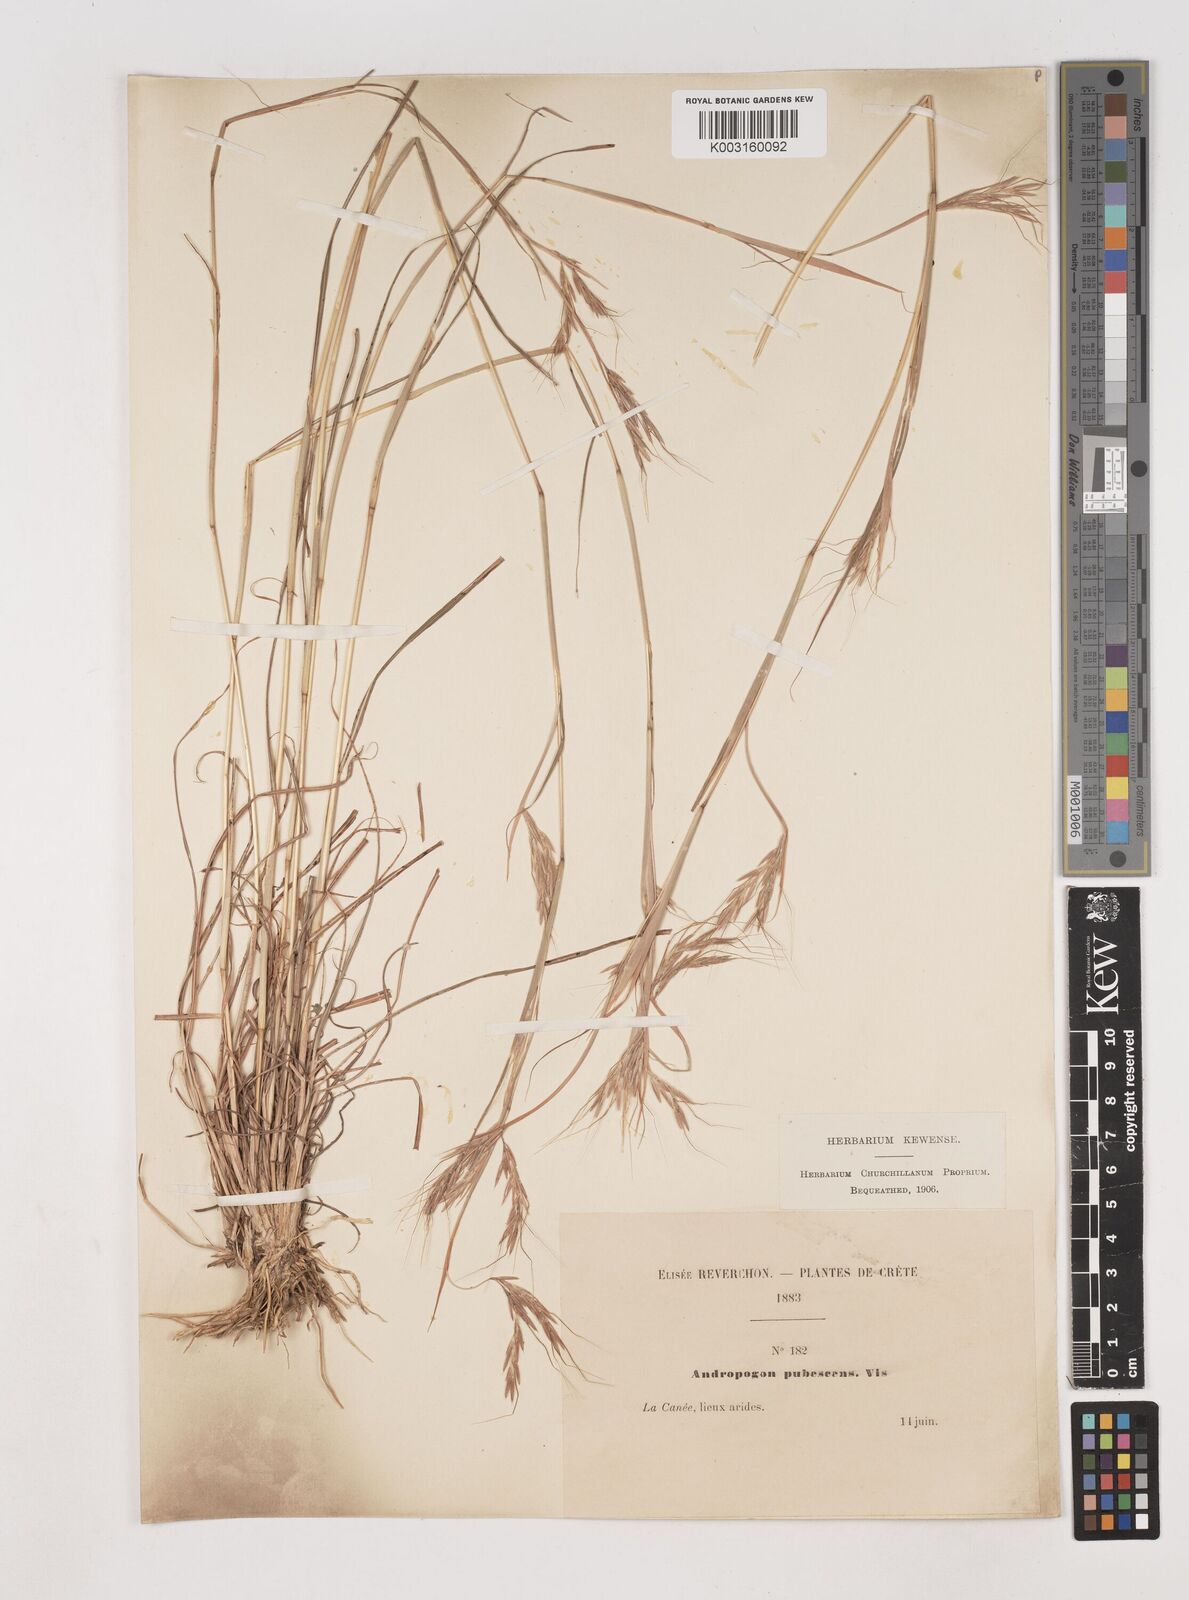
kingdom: Plantae
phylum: Tracheophyta
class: Liliopsida
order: Poales
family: Poaceae
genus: Hyparrhenia
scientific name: Hyparrhenia hirta
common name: Thatching grass
